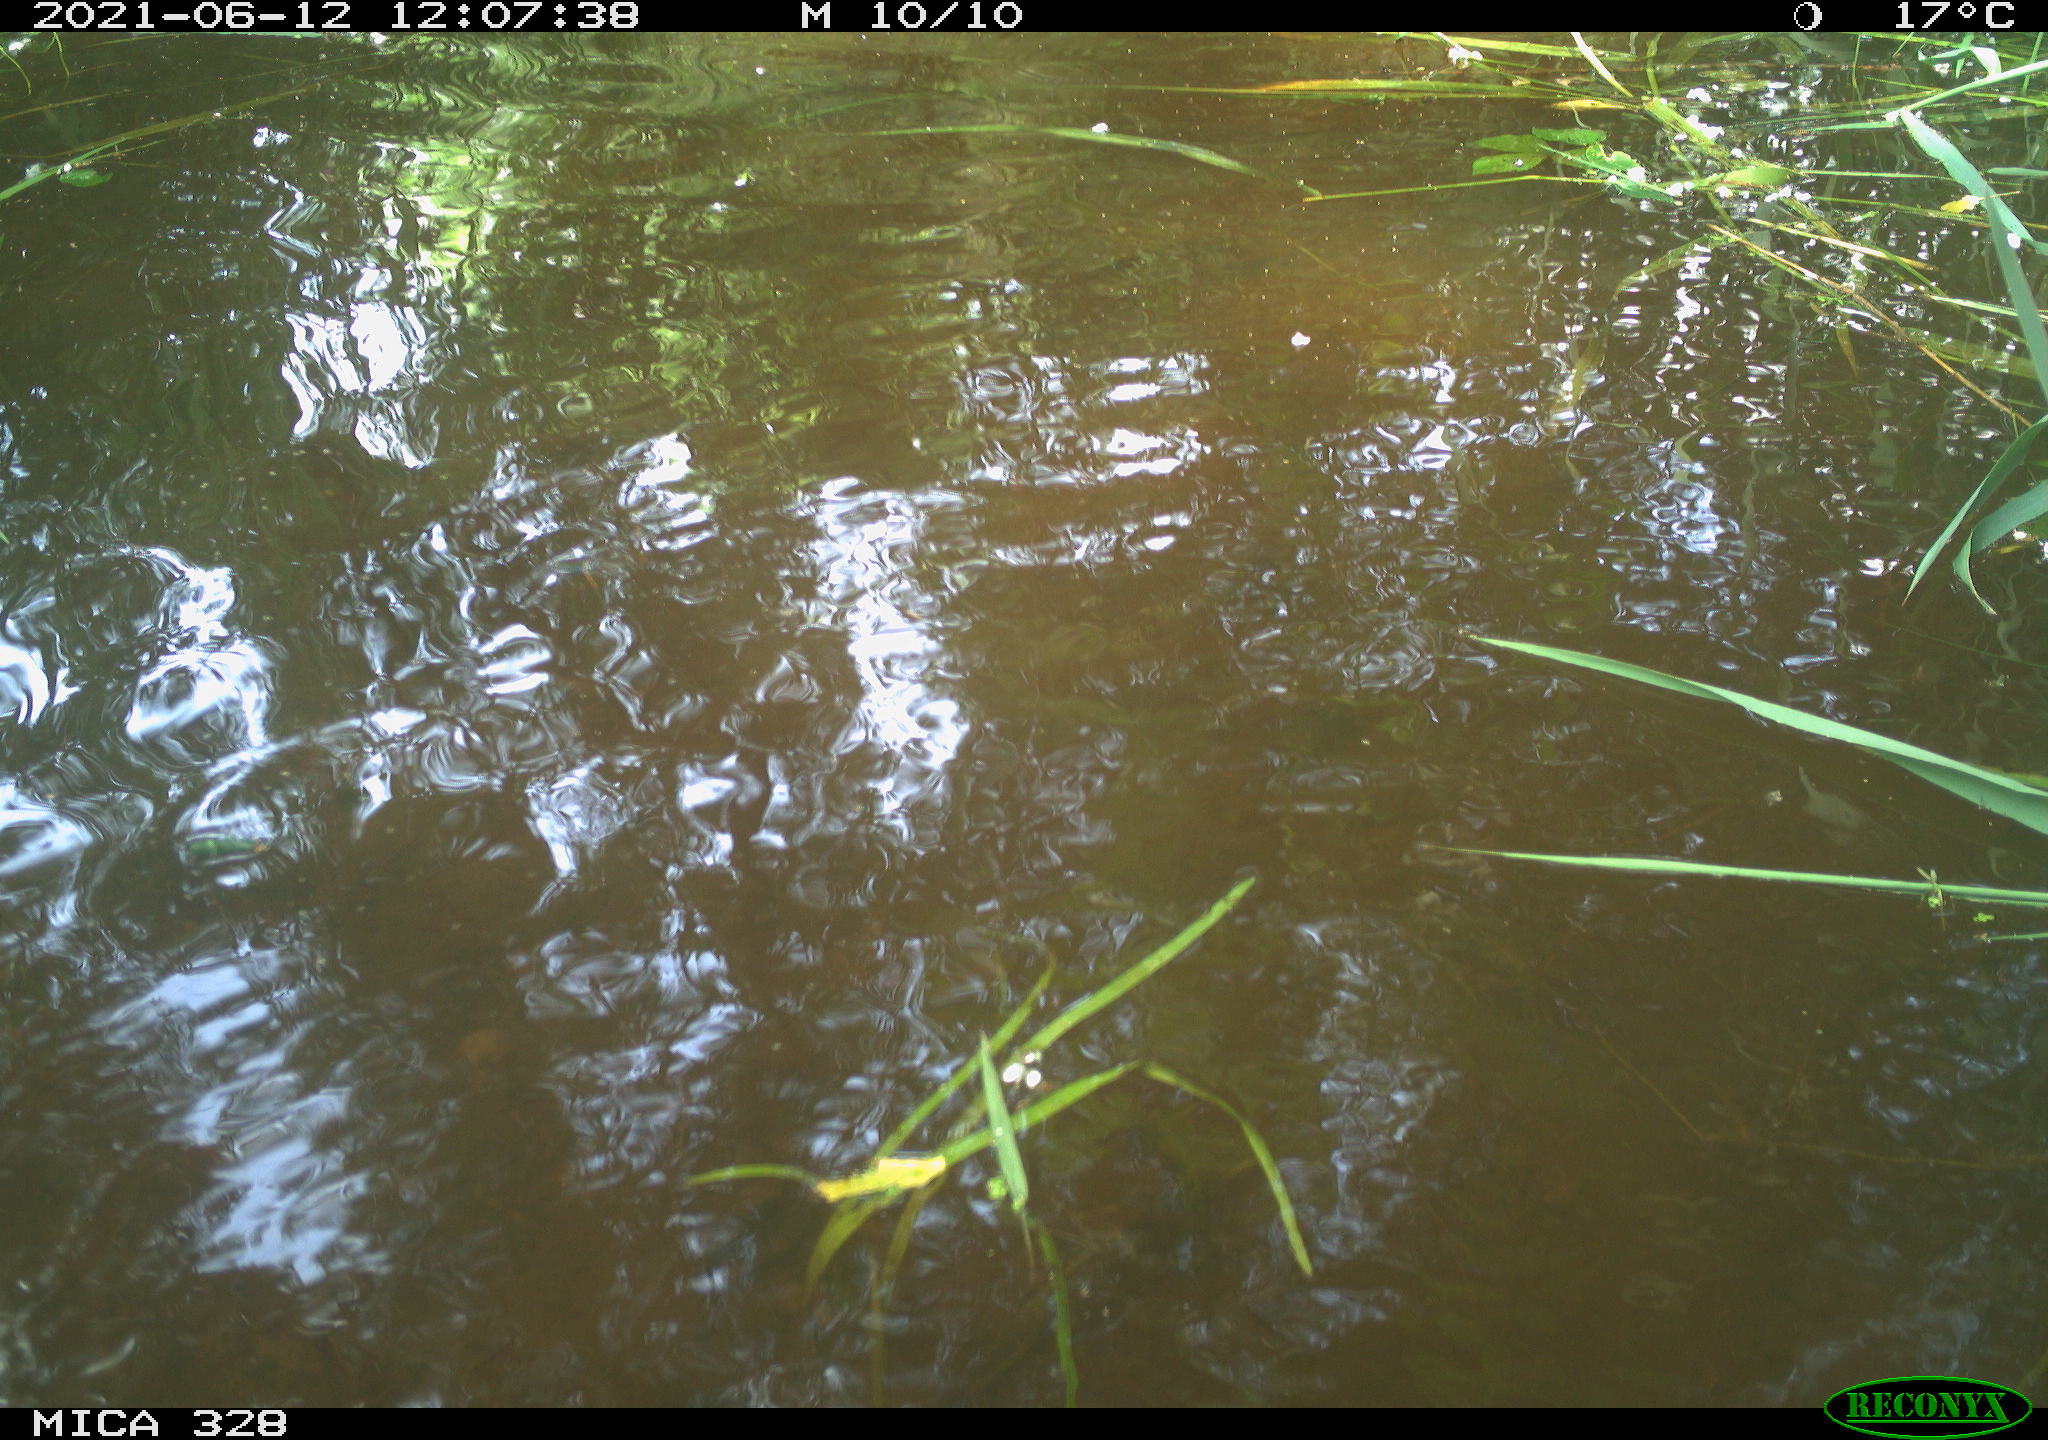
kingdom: Animalia
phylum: Chordata
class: Aves
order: Anseriformes
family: Anatidae
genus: Aix
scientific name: Aix galericulata
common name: Mandarin duck
